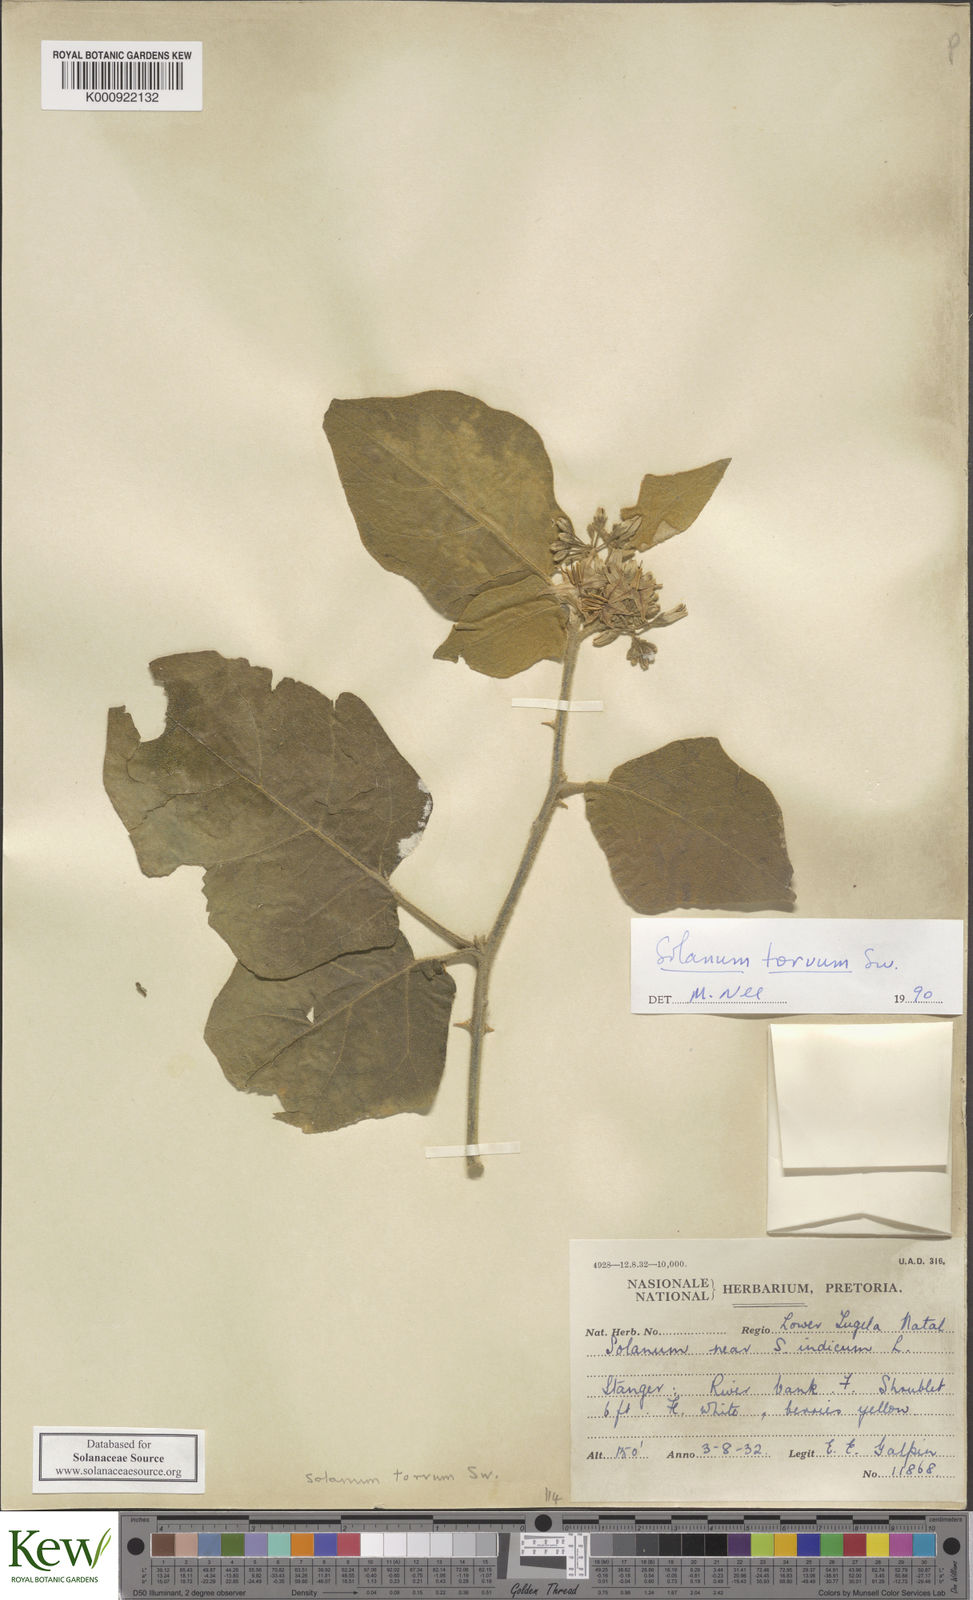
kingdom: Plantae
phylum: Tracheophyta
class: Magnoliopsida
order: Solanales
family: Solanaceae
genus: Solanum
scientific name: Solanum torvum
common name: Turkey berry
